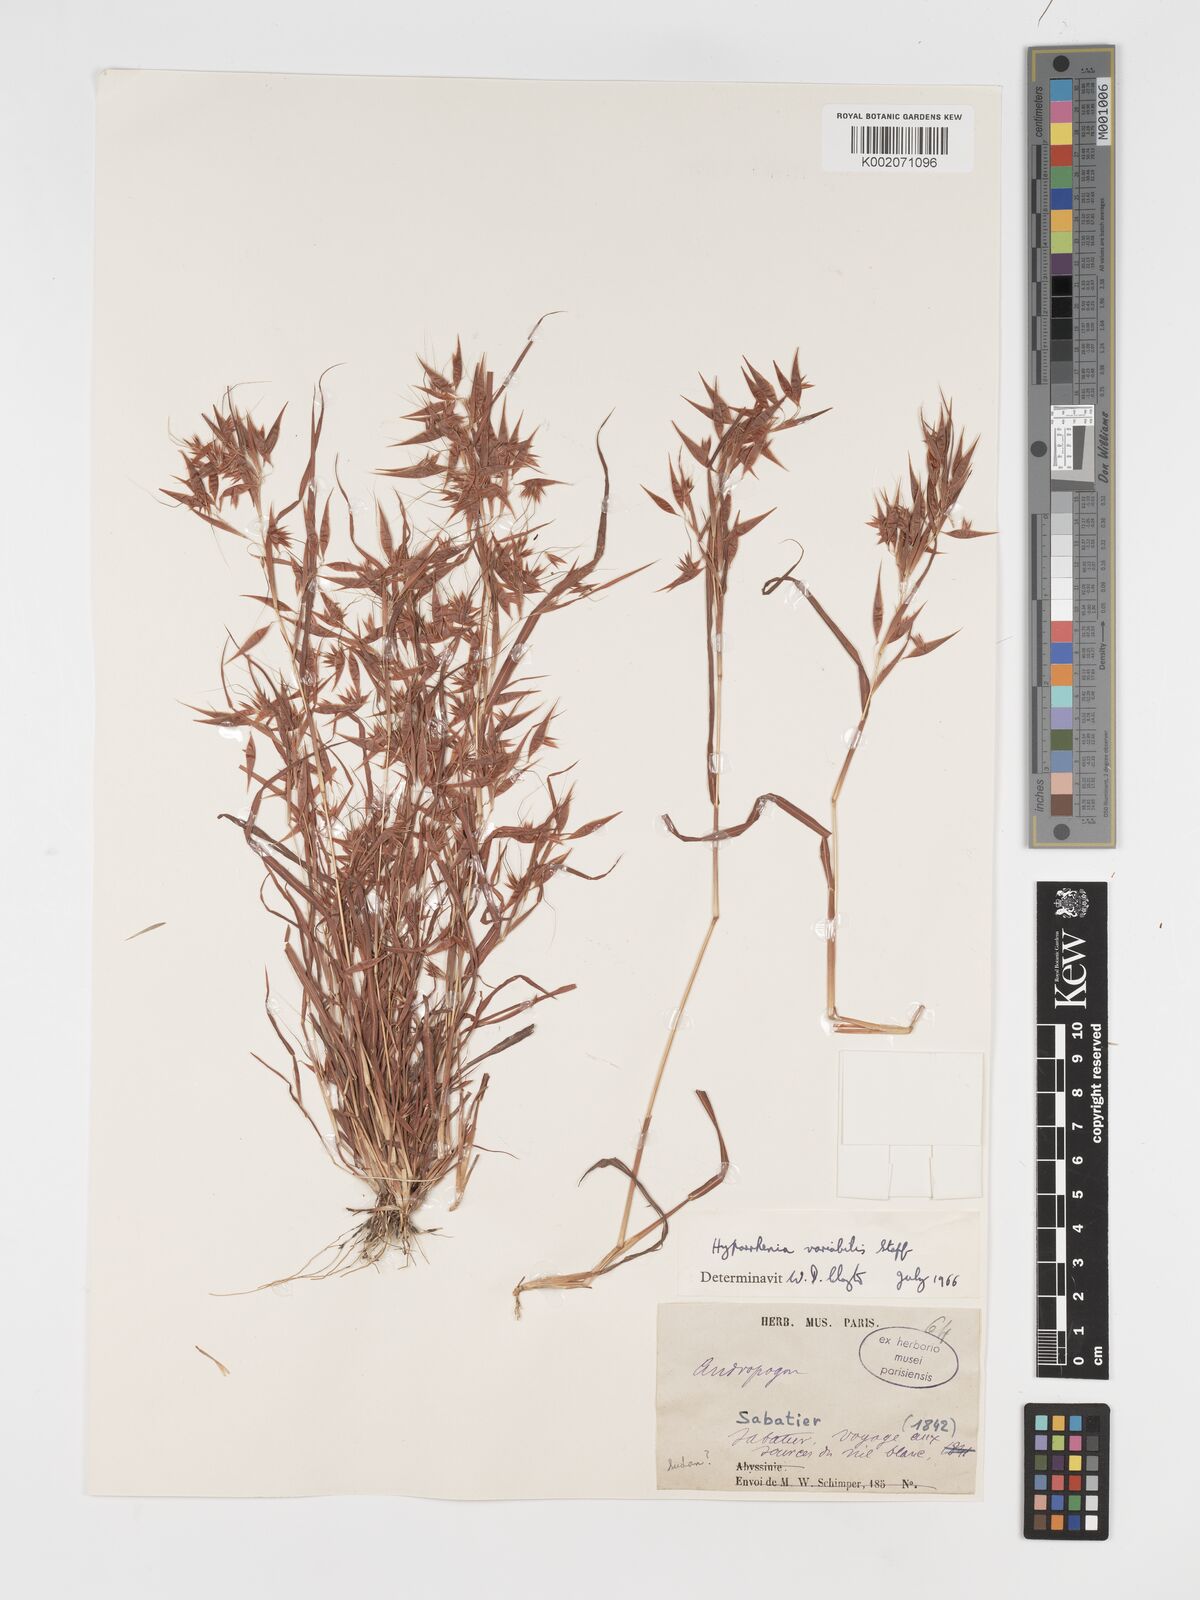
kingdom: Plantae
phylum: Tracheophyta
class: Liliopsida
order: Poales
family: Poaceae
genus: Hyparrhenia
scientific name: Hyparrhenia variabilis
